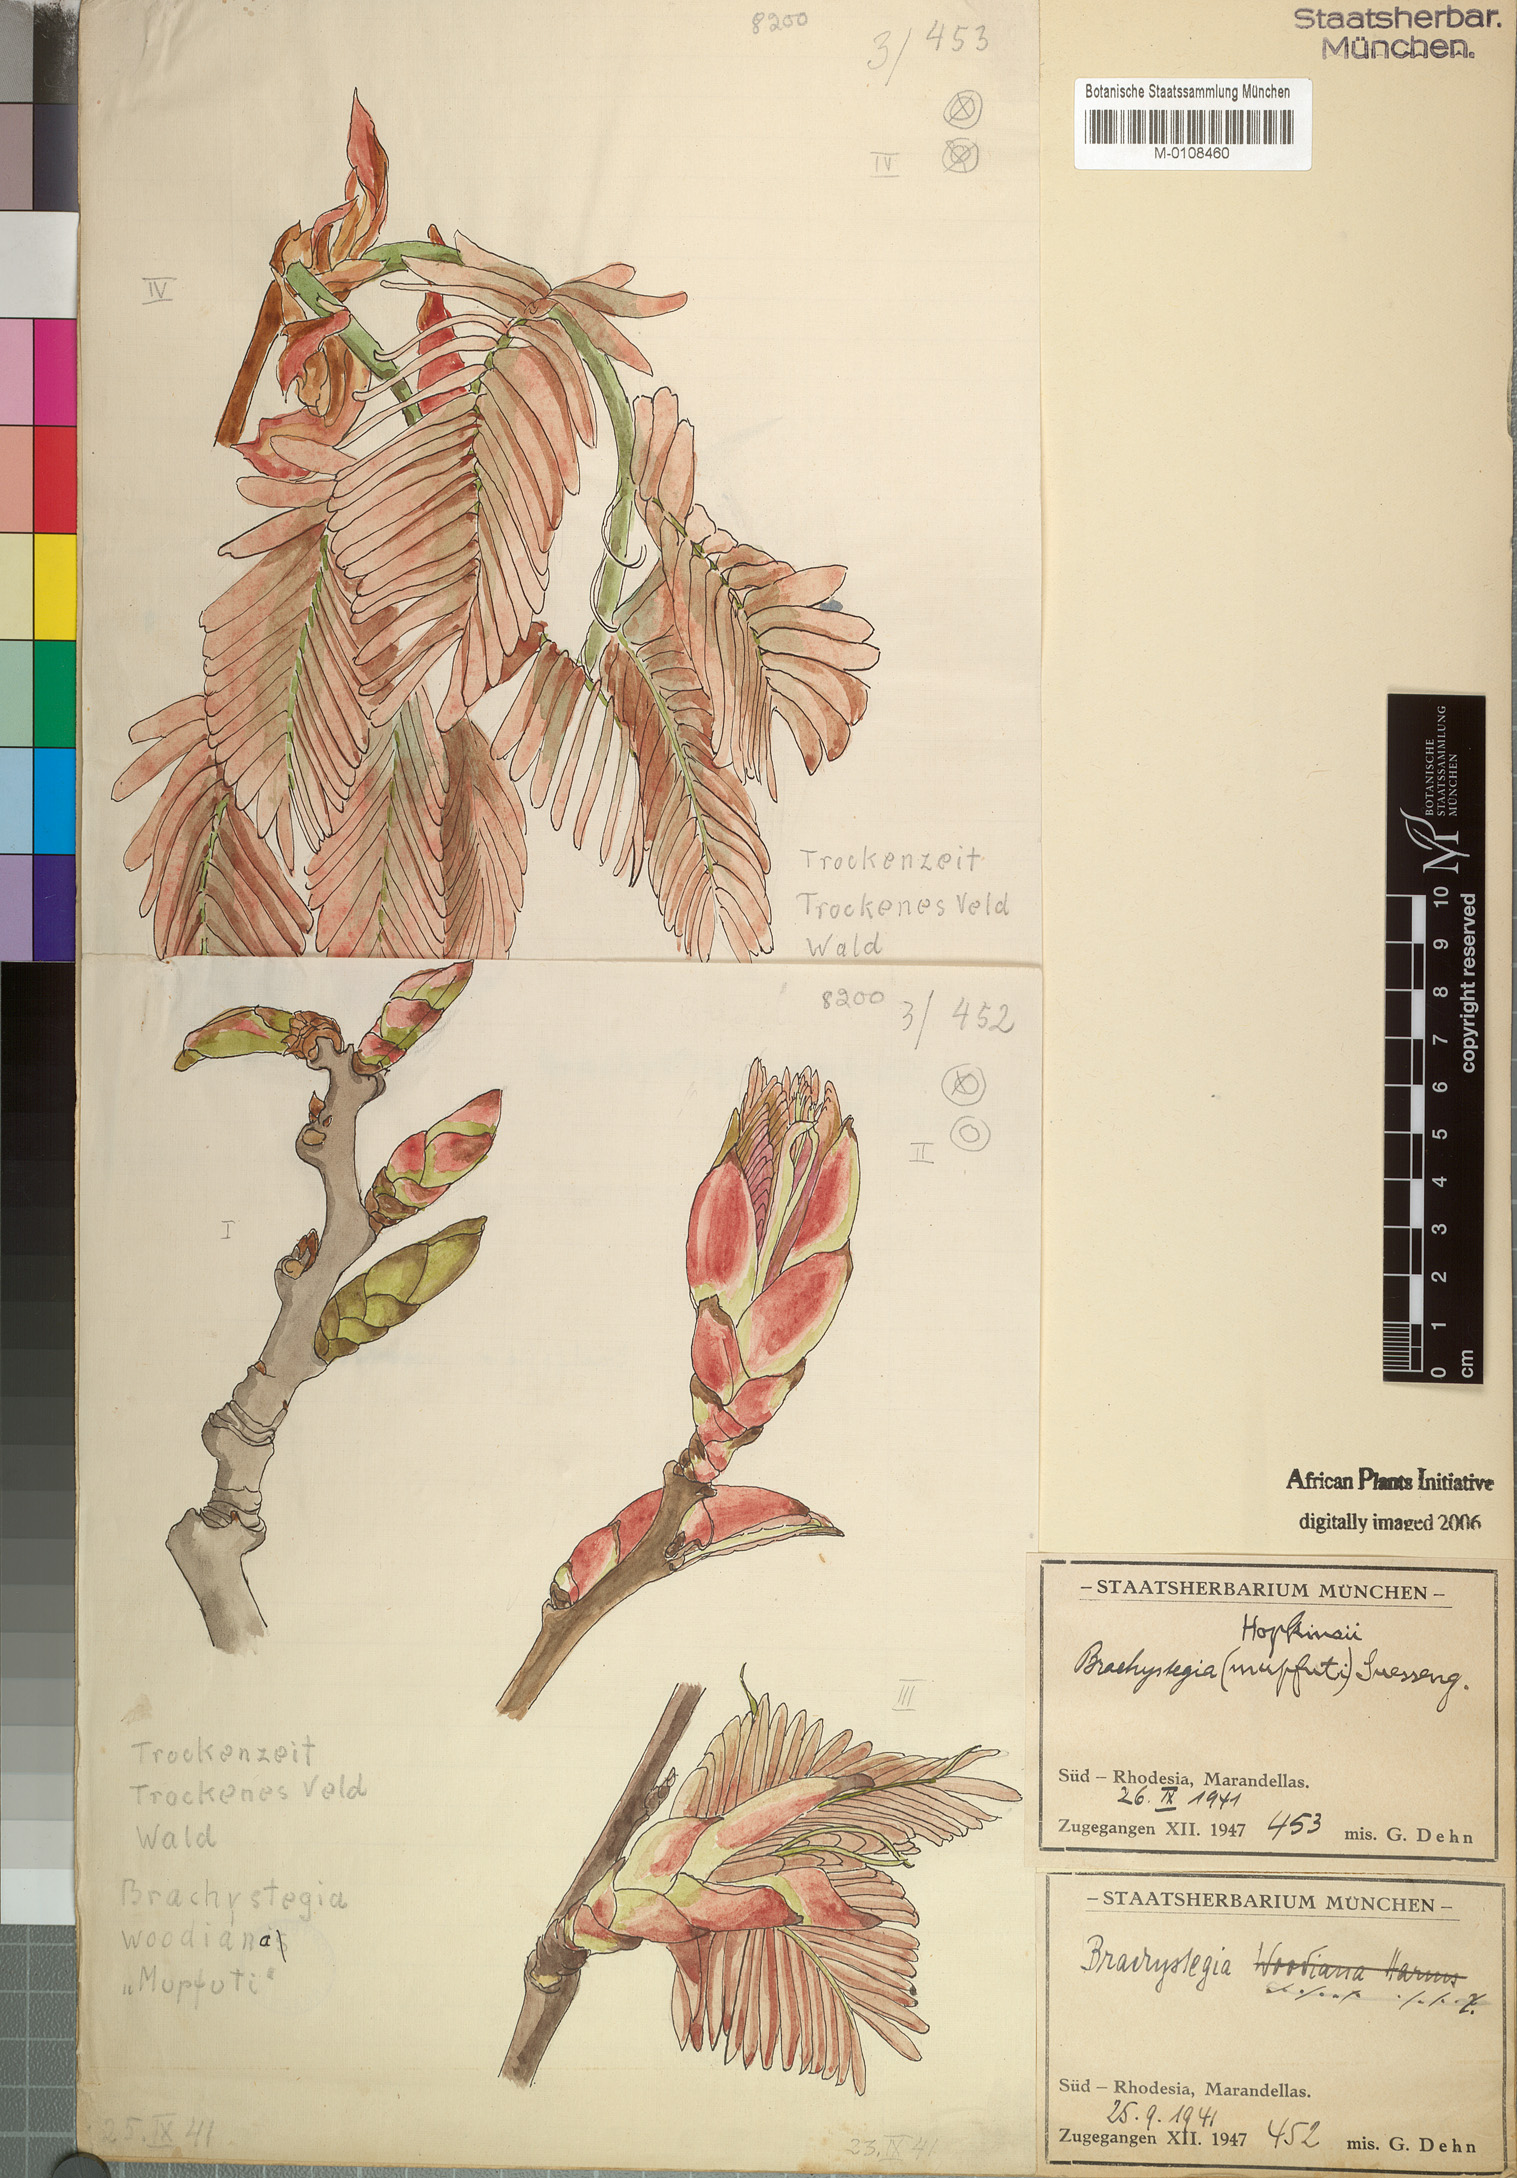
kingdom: Plantae
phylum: Tracheophyta
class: Magnoliopsida
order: Fabales
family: Fabaceae
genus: Brachystegia
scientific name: Brachystegia boehmii
